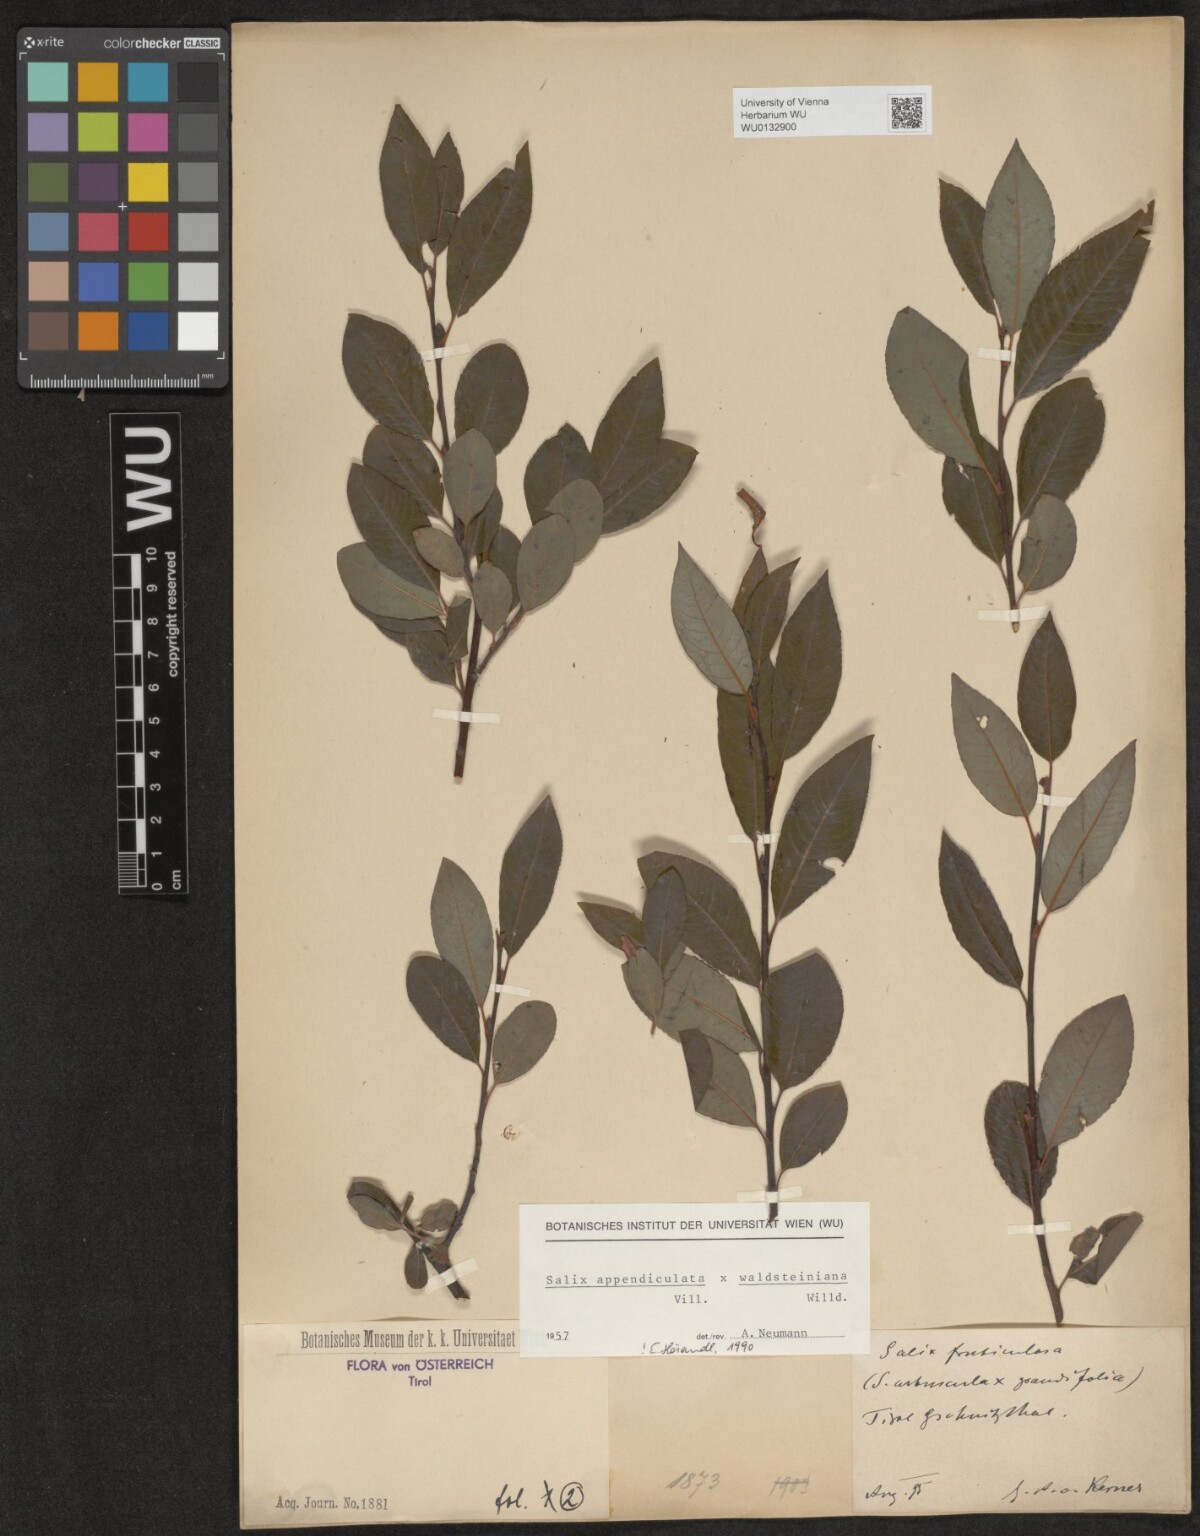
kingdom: Plantae
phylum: Tracheophyta
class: Magnoliopsida
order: Malpighiales
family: Salicaceae
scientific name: Salicaceae
